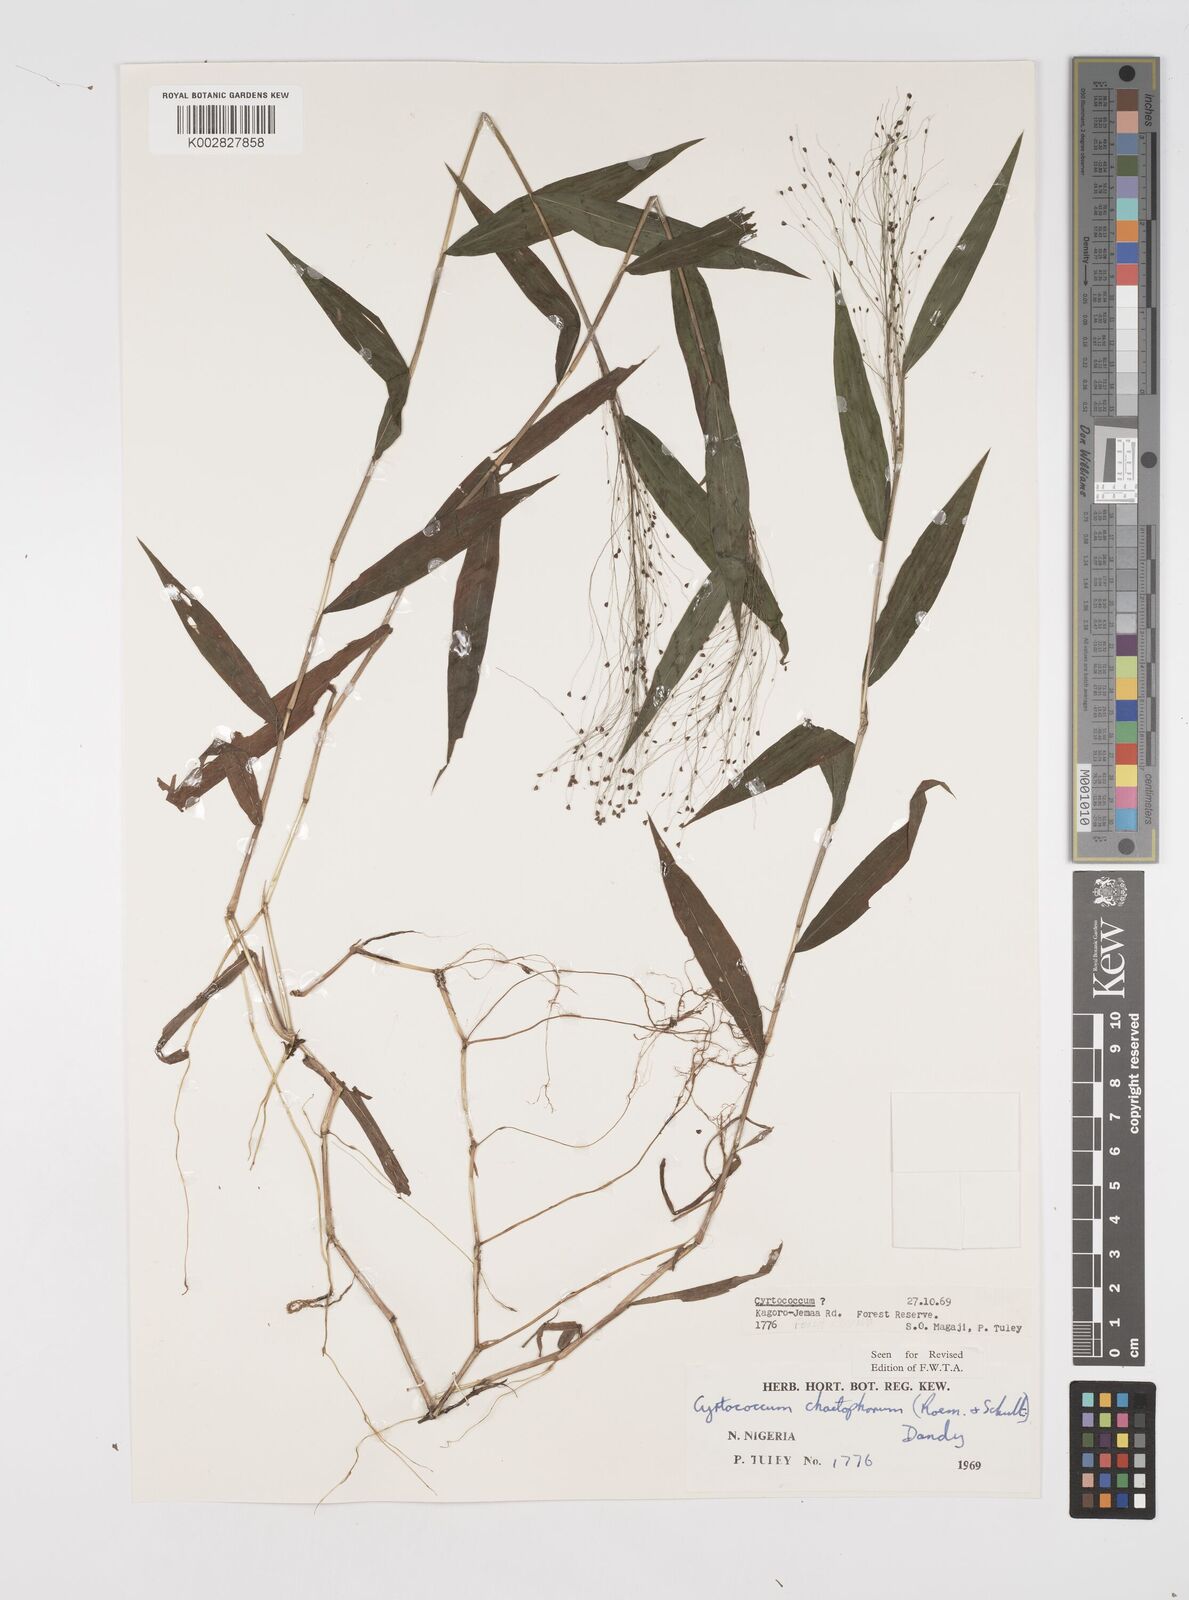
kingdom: Plantae
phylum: Tracheophyta
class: Liliopsida
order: Poales
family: Poaceae
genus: Cyrtococcum
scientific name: Cyrtococcum chaetophoron
